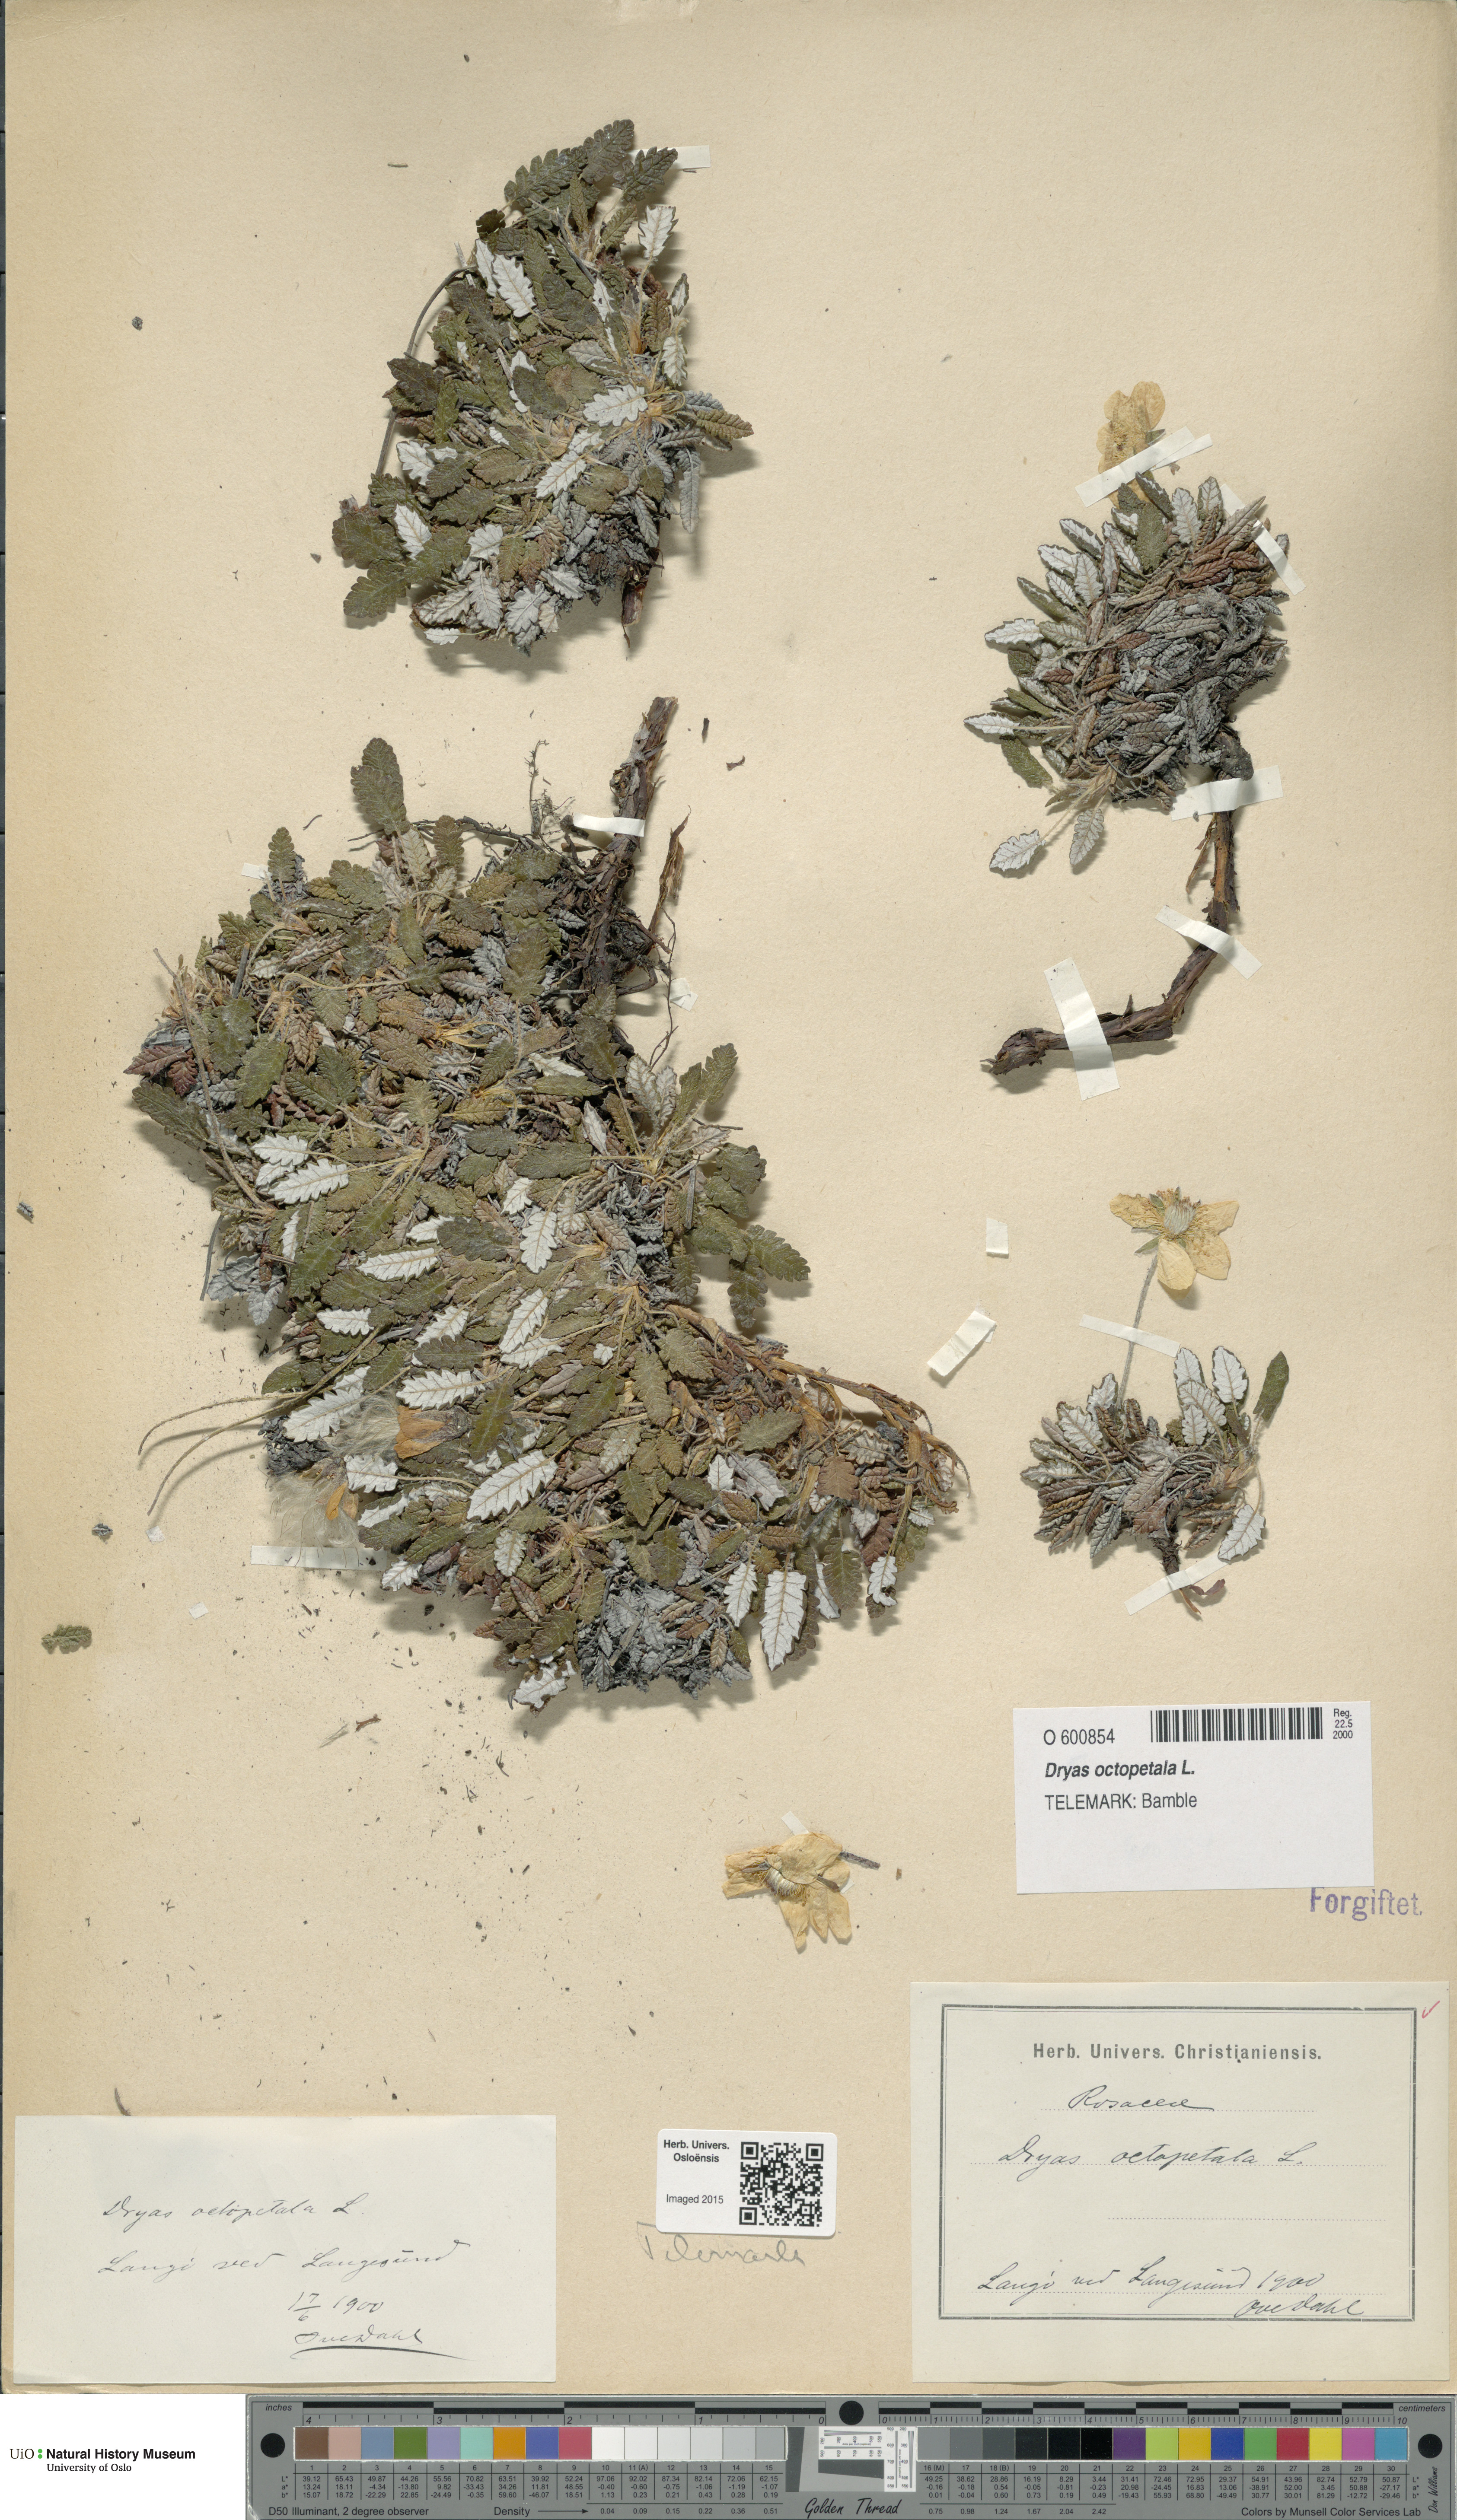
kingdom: Plantae
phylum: Tracheophyta
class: Magnoliopsida
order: Rosales
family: Rosaceae
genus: Dryas
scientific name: Dryas octopetala
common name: Eight-petal mountain-avens
